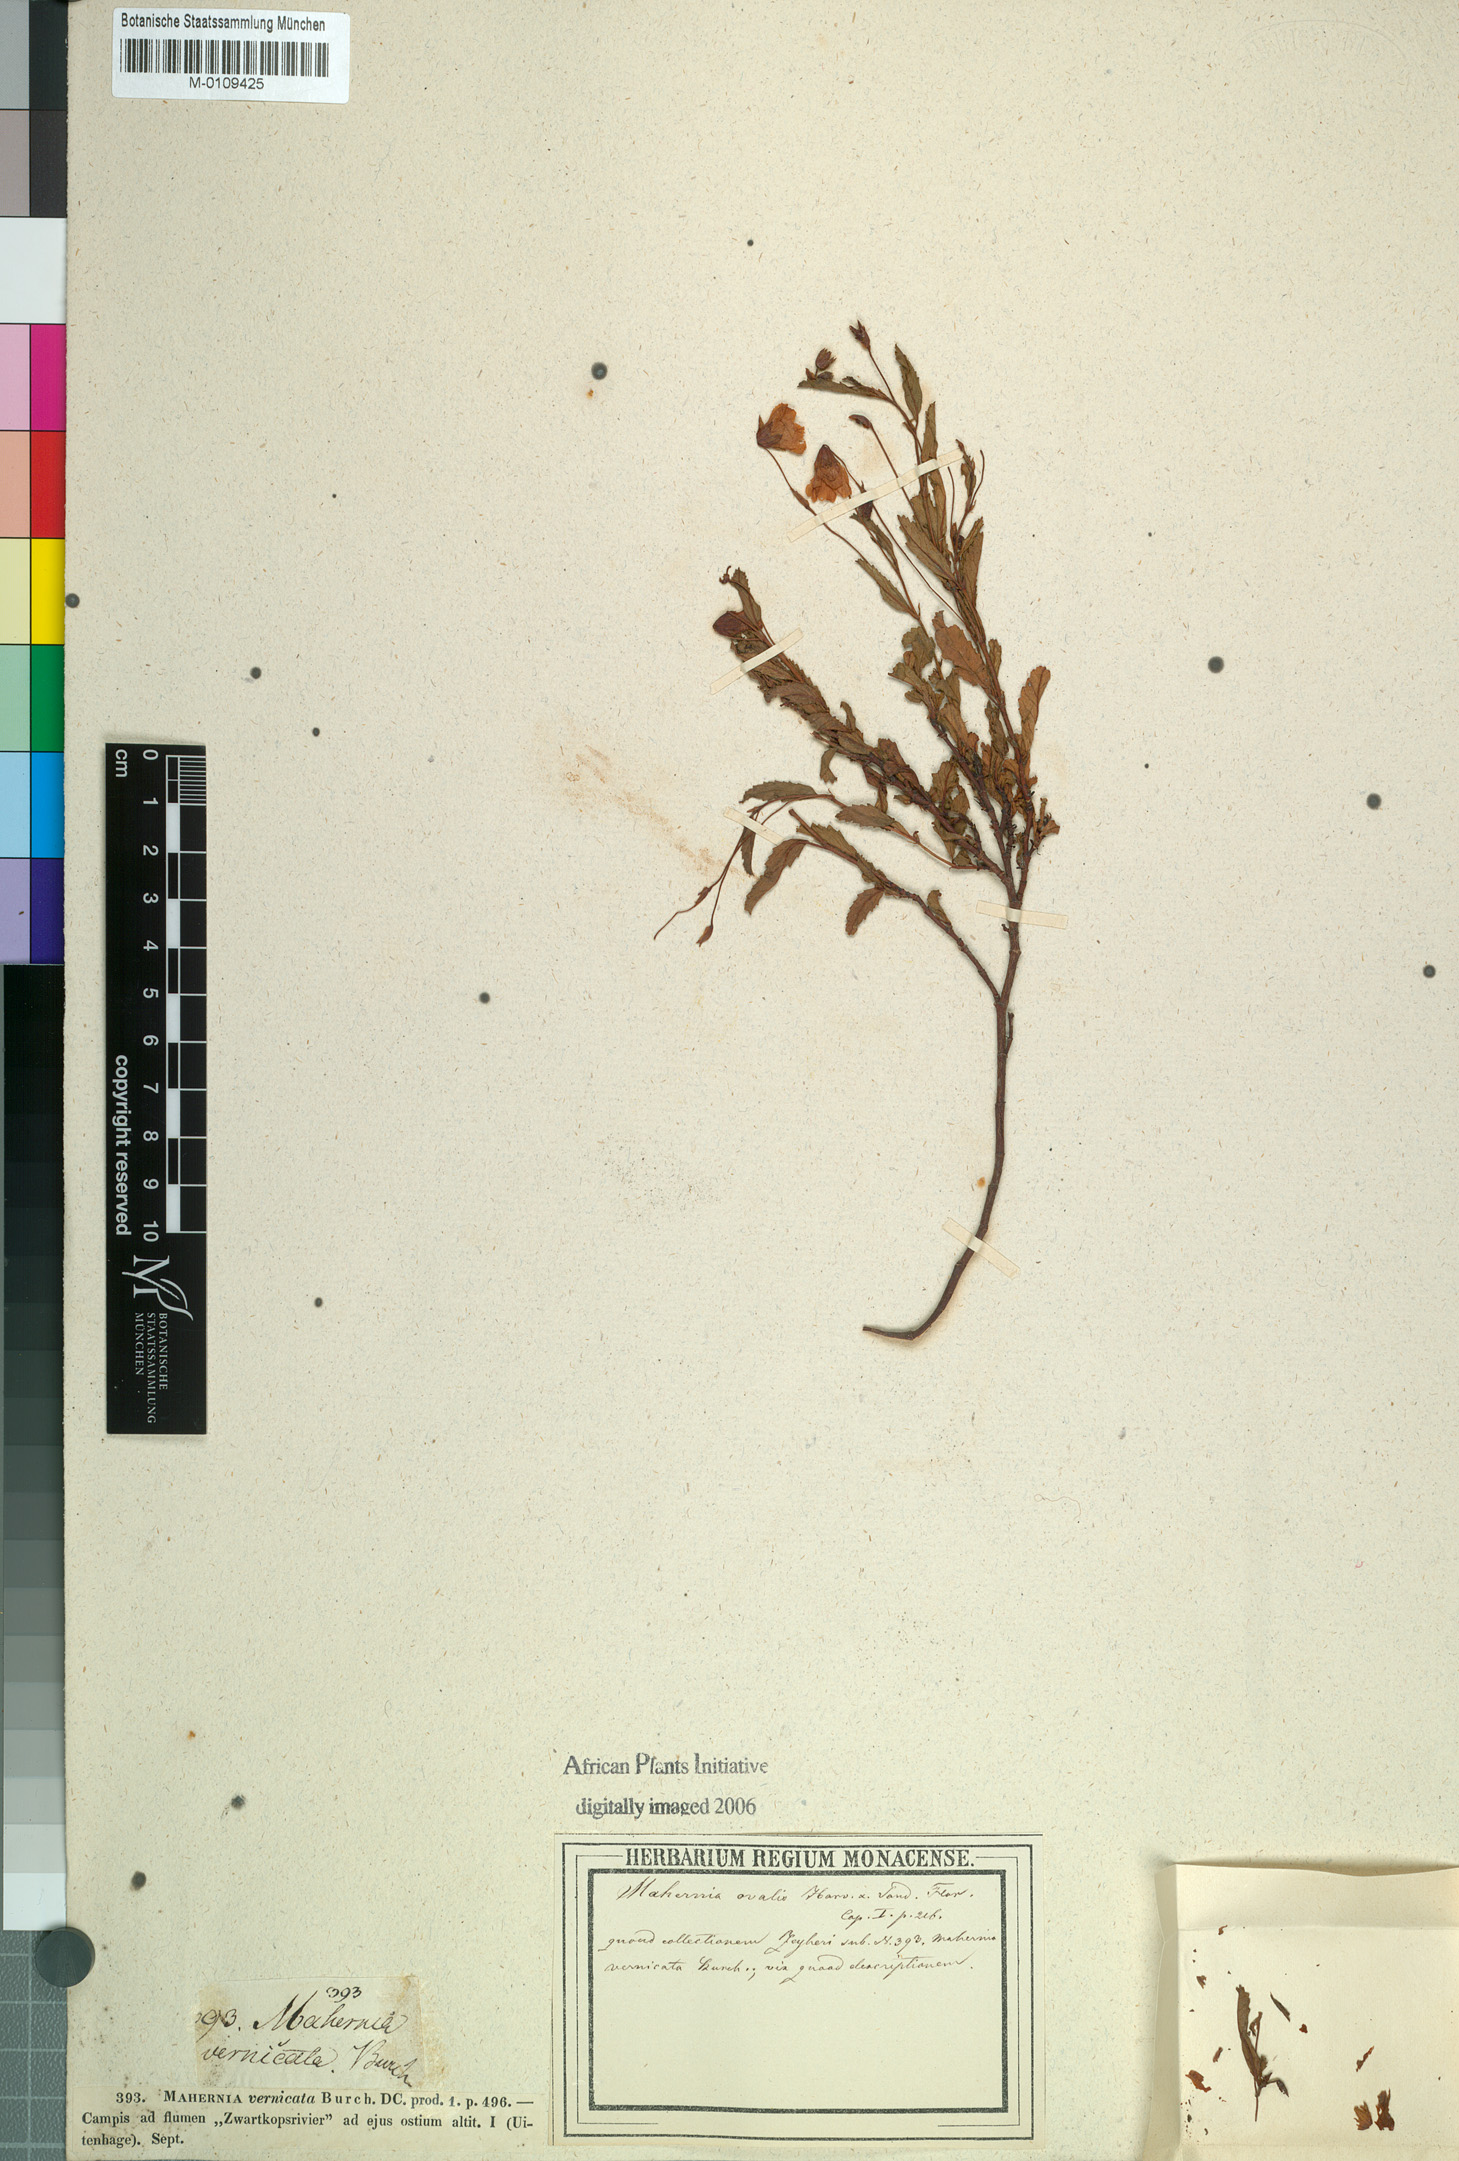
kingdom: Plantae
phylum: Tracheophyta
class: Magnoliopsida
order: Malvales
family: Malvaceae
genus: Hermannia
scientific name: Hermannia saccifera
